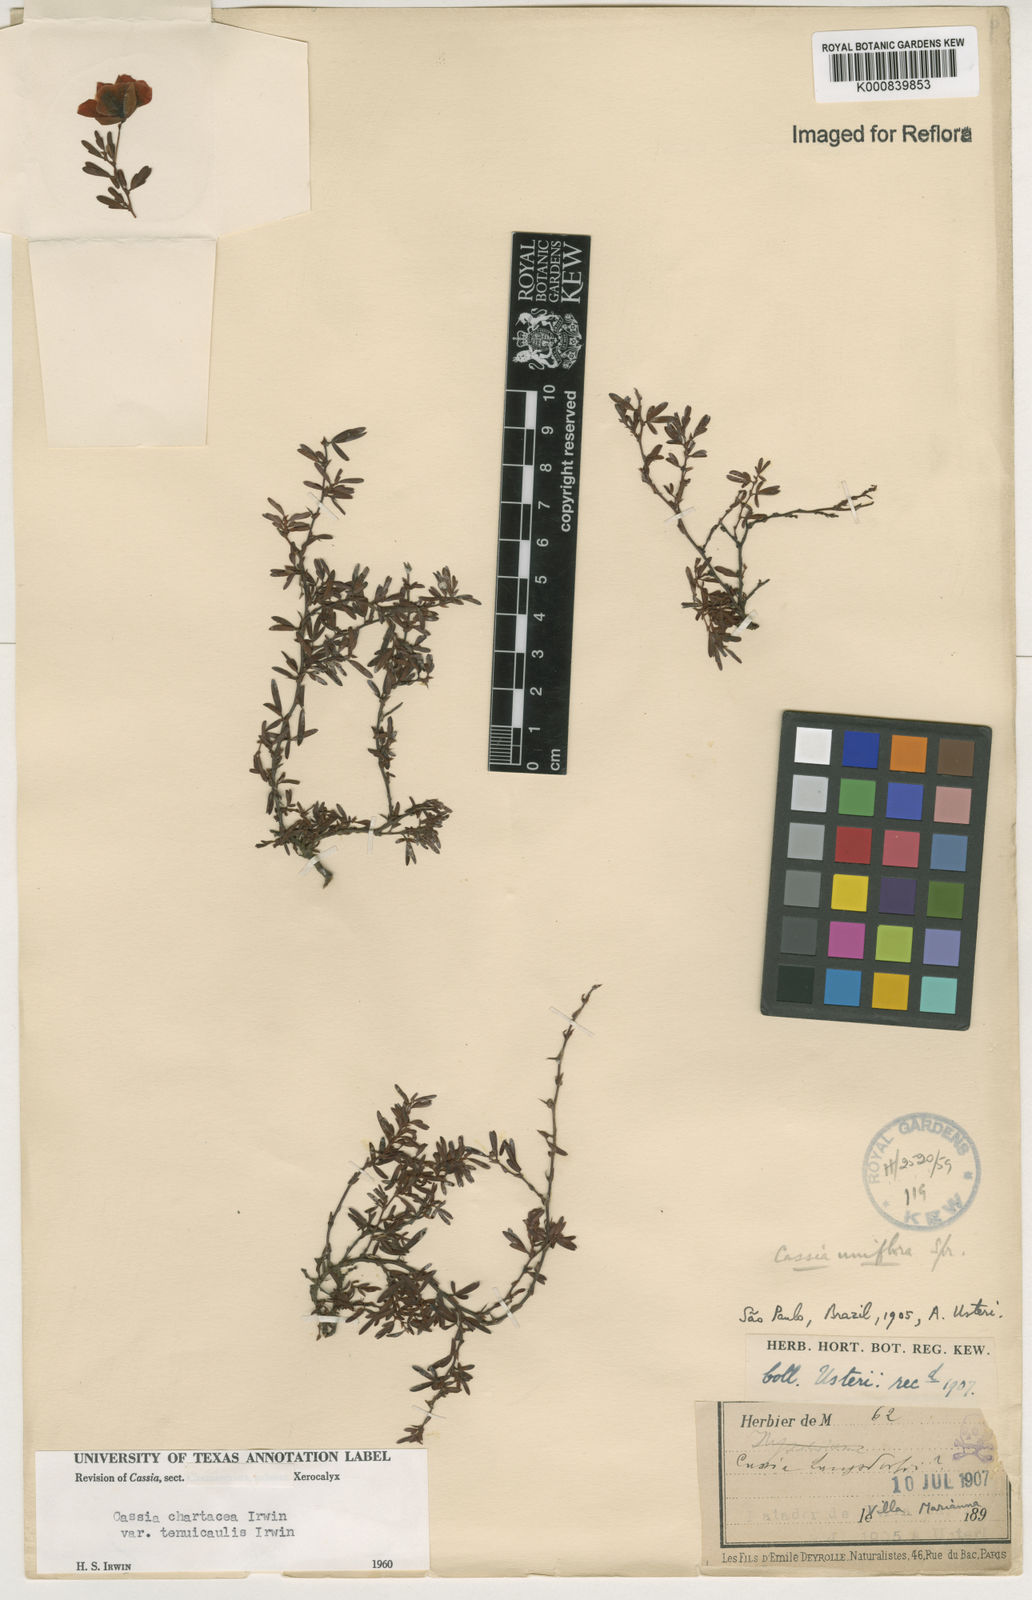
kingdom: Plantae
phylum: Tracheophyta
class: Magnoliopsida
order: Fabales
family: Fabaceae
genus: Chamaecrista
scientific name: Chamaecrista ramosa
